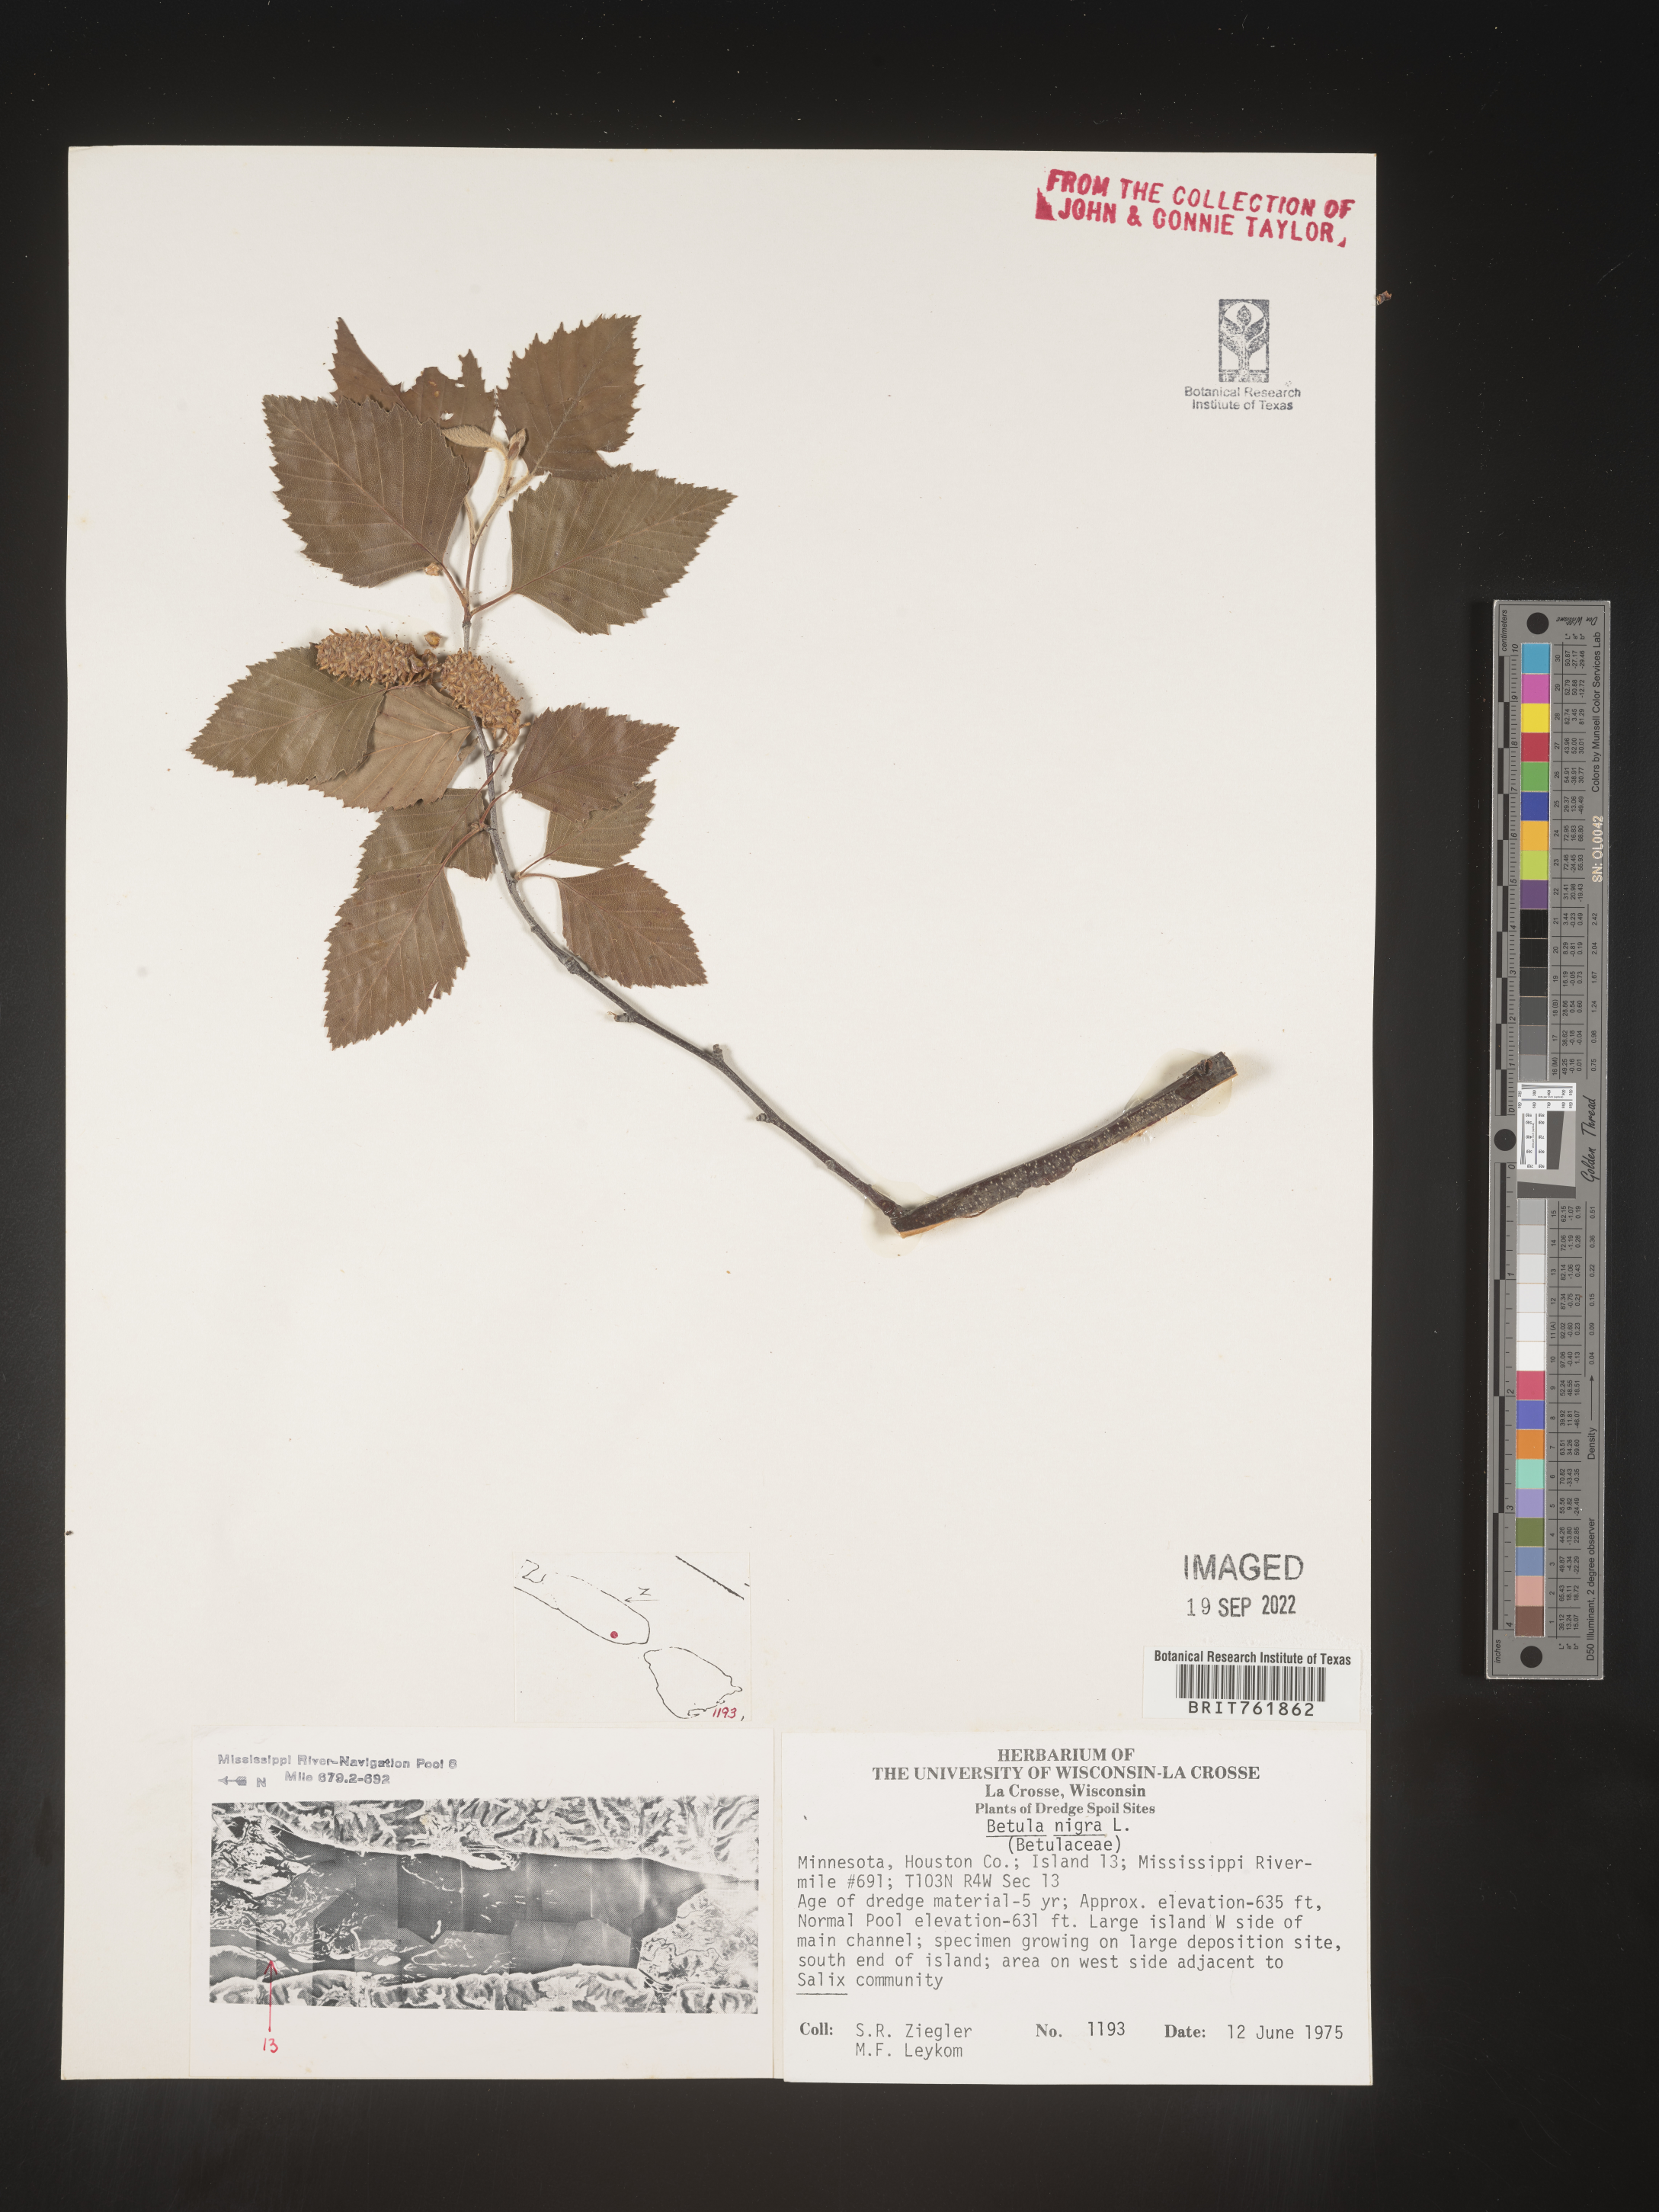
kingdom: Plantae
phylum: Tracheophyta
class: Magnoliopsida
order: Fagales
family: Betulaceae
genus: Betula
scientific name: Betula nigra
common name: Black birch
